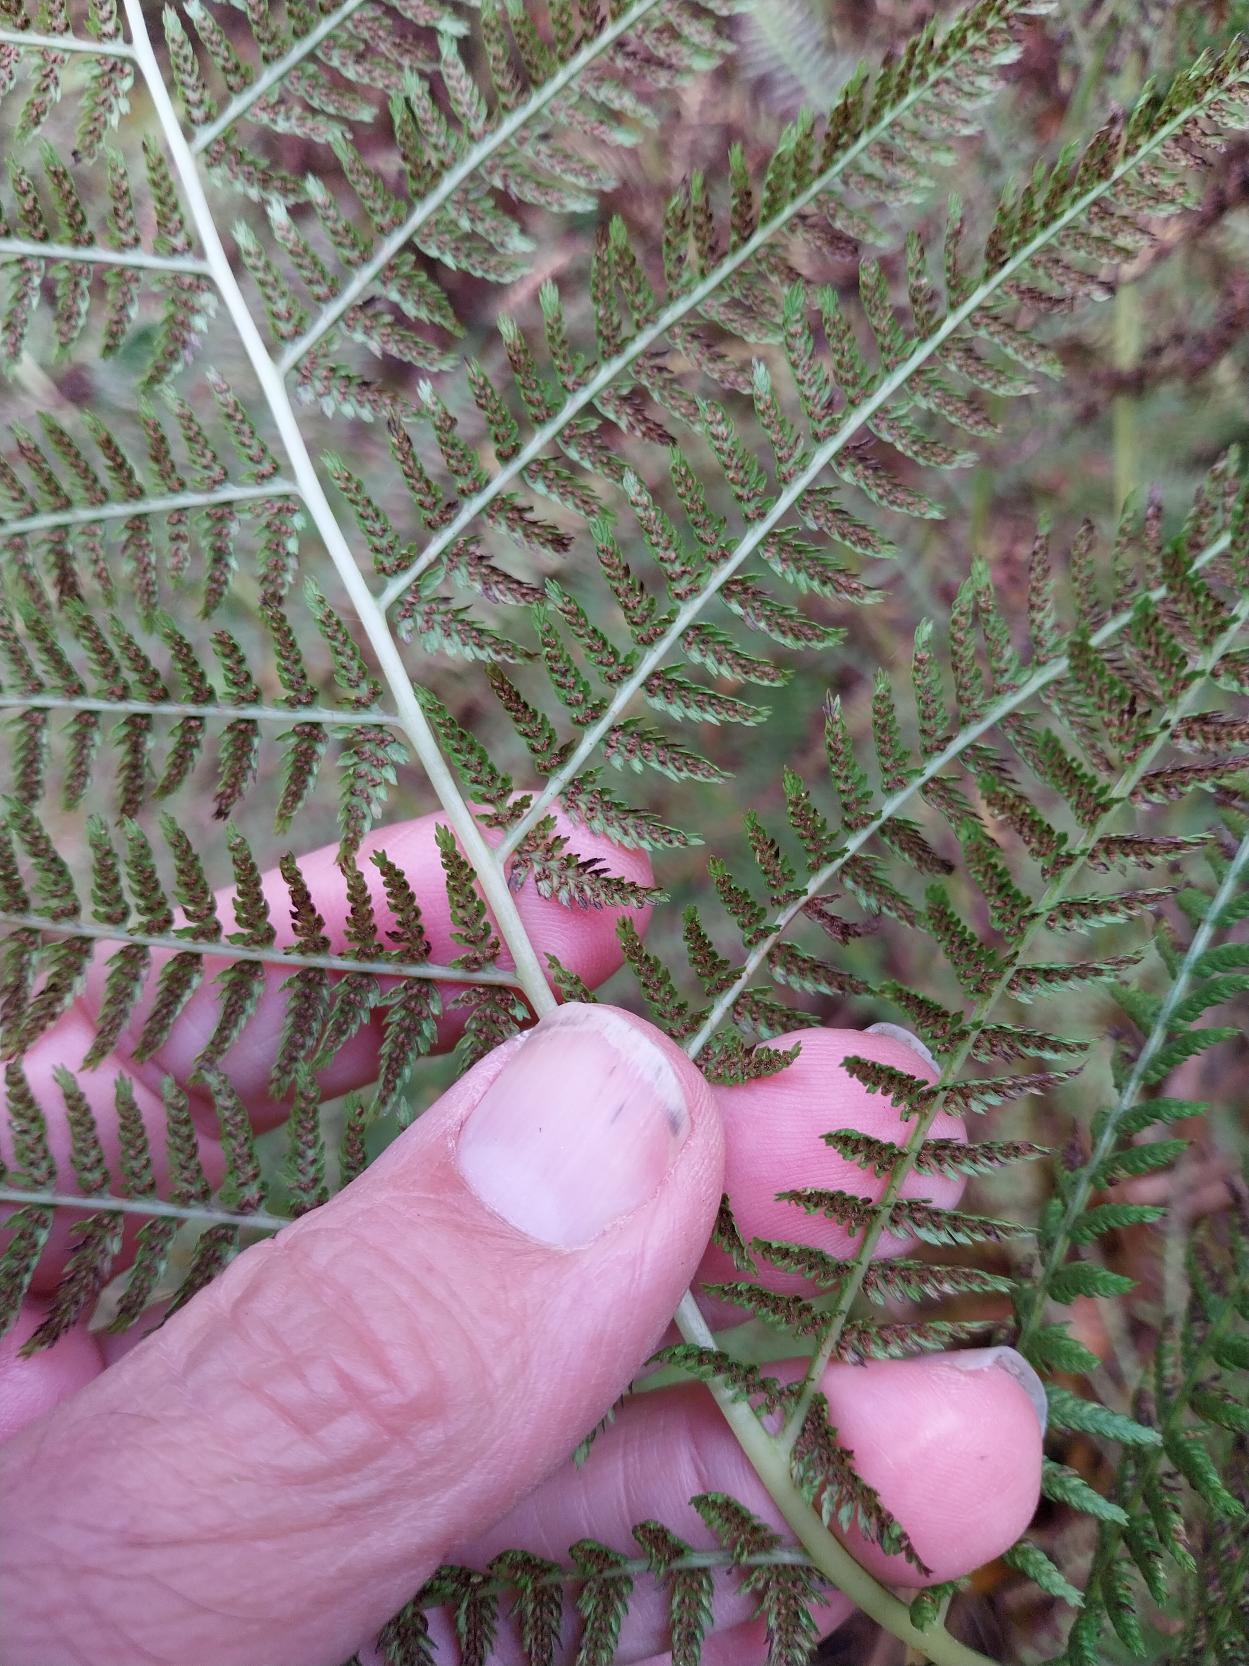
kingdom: Plantae
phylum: Tracheophyta
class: Polypodiopsida
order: Polypodiales
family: Athyriaceae
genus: Athyrium
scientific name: Athyrium filix-femina
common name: Fjerbregne
